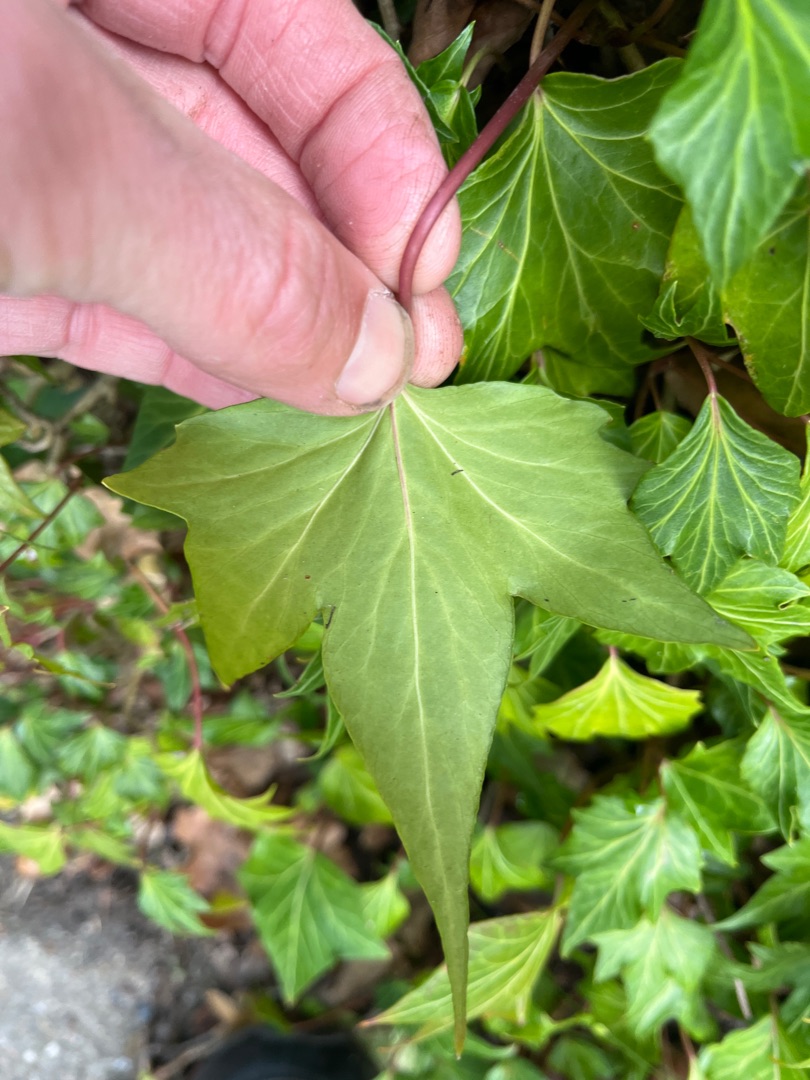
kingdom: Plantae
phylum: Tracheophyta
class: Magnoliopsida
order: Apiales
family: Araliaceae
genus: Hedera
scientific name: Hedera helix
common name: Vedbend
